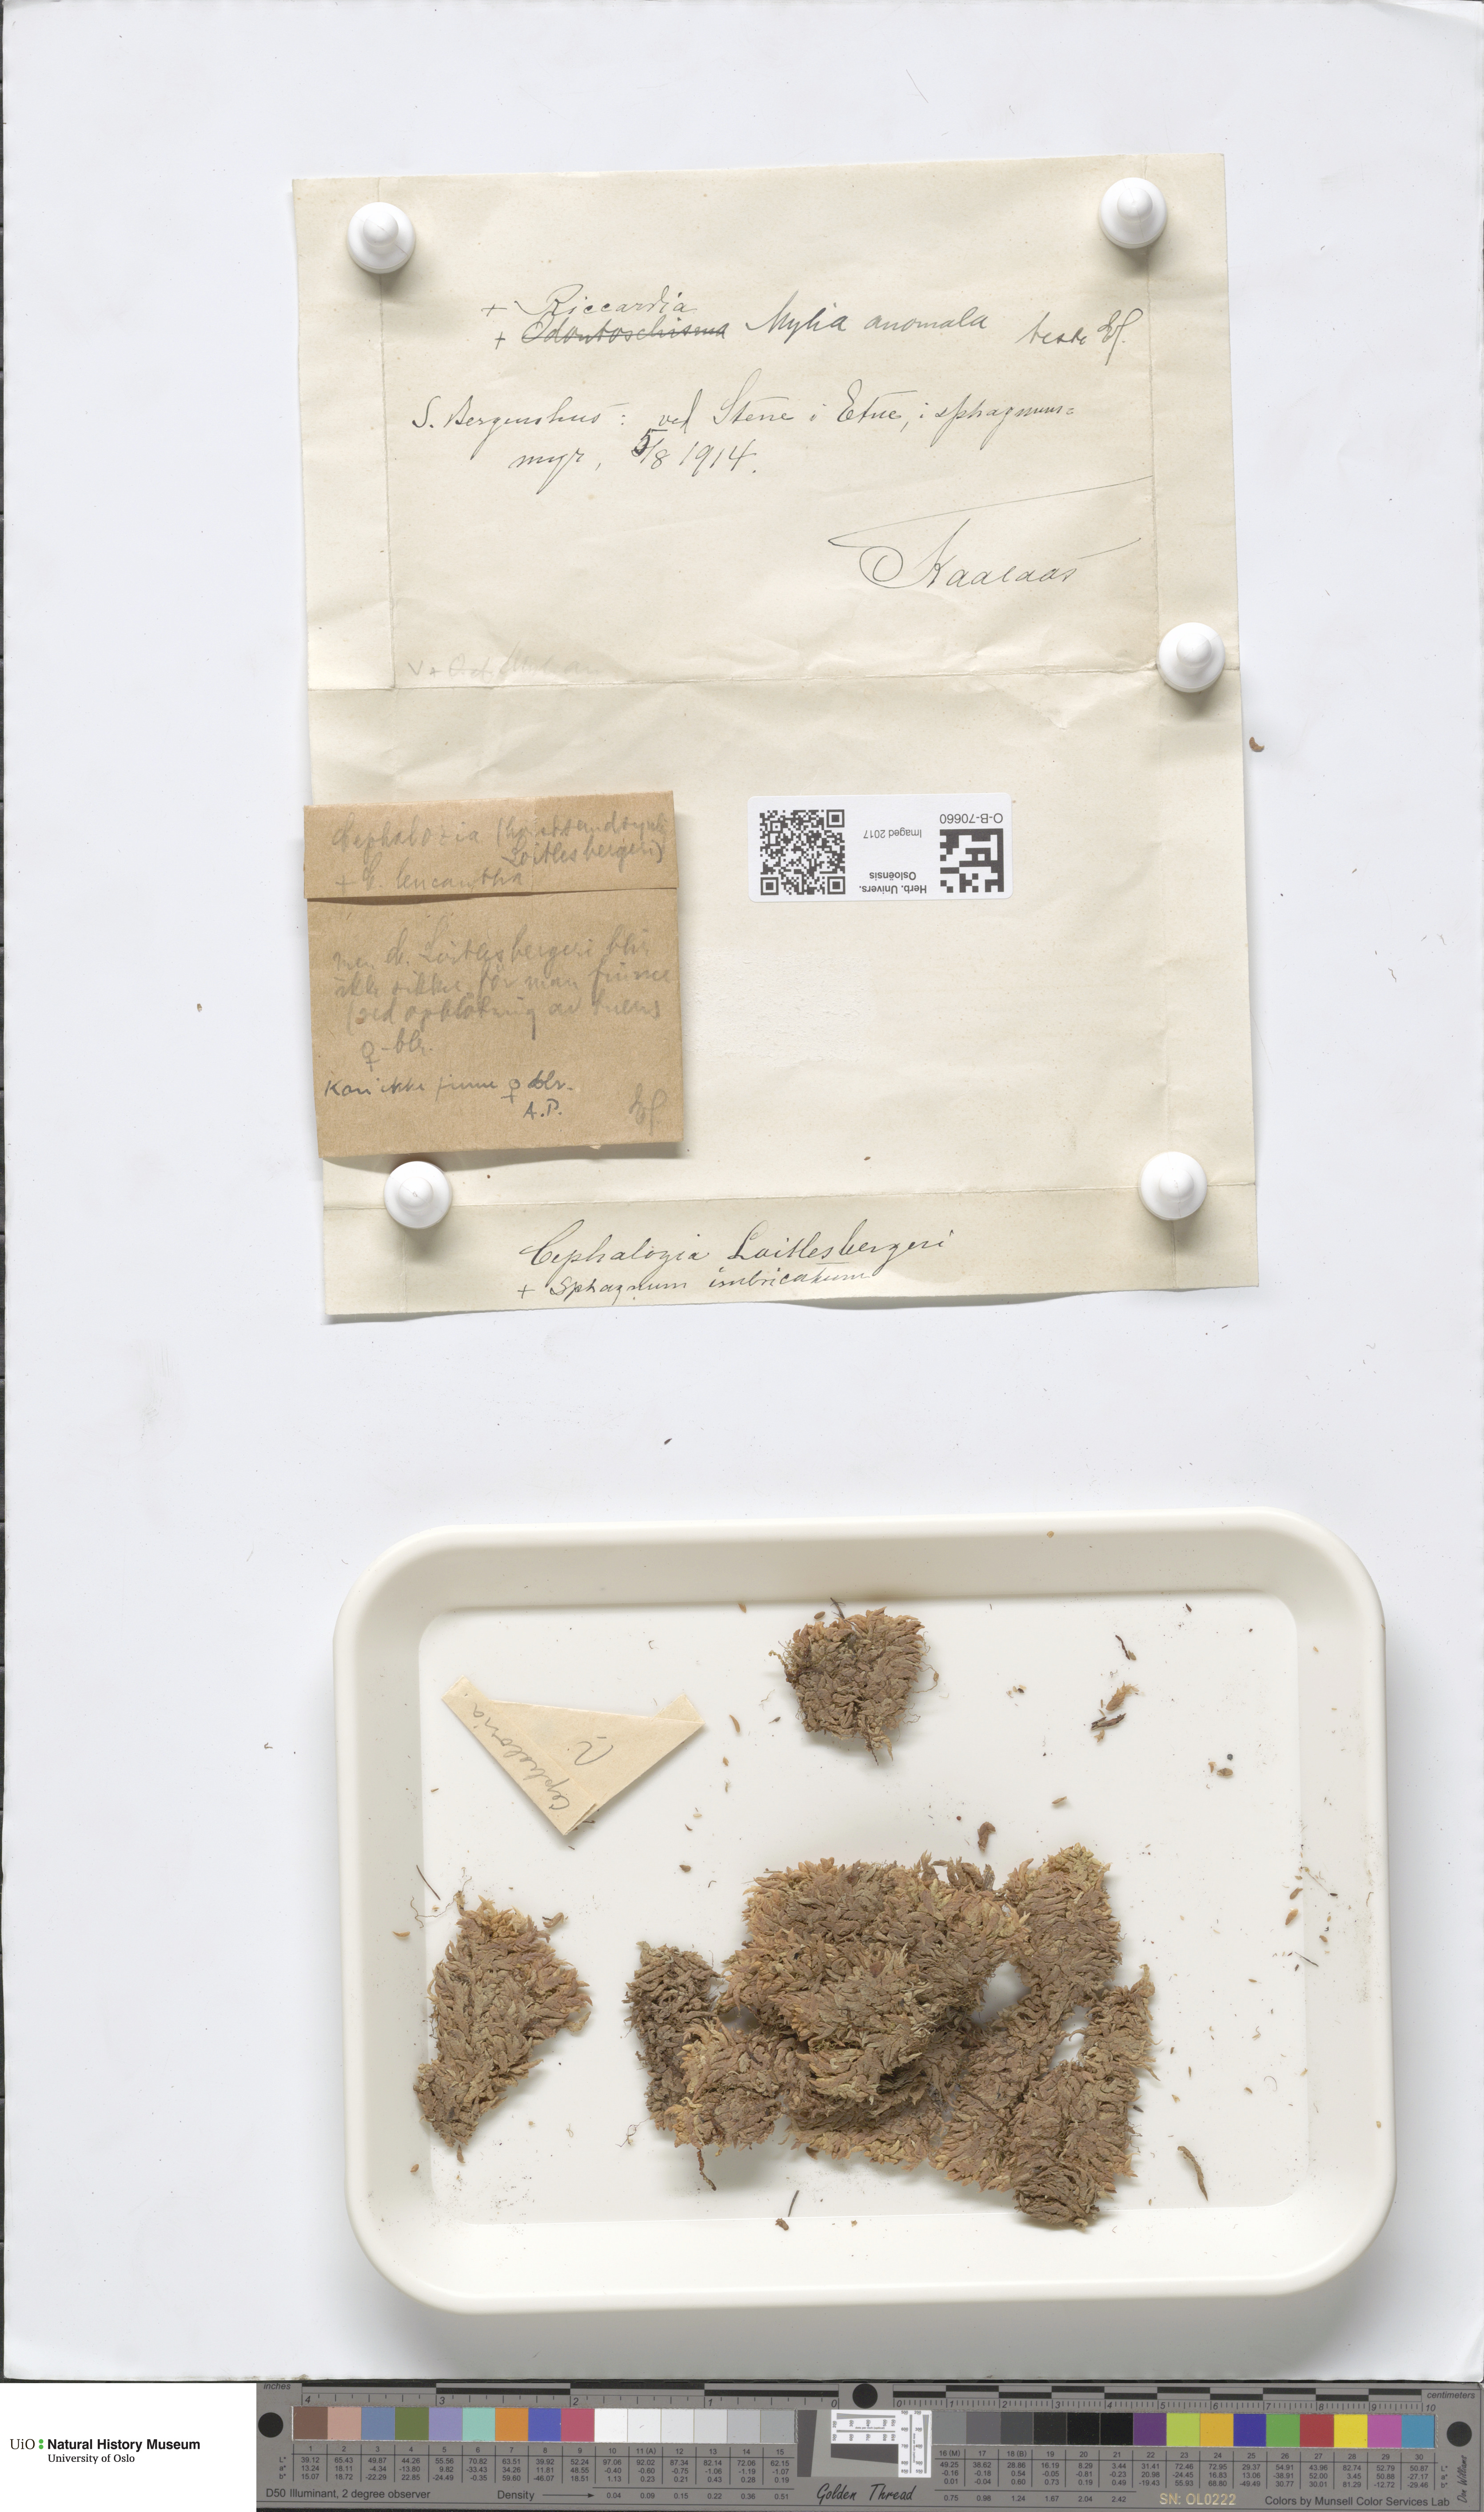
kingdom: Plantae
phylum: Marchantiophyta
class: Jungermanniopsida
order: Jungermanniales
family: Cephaloziaceae
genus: Fuscocephaloziopsis
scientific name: Fuscocephaloziopsis loitlesbergeri
